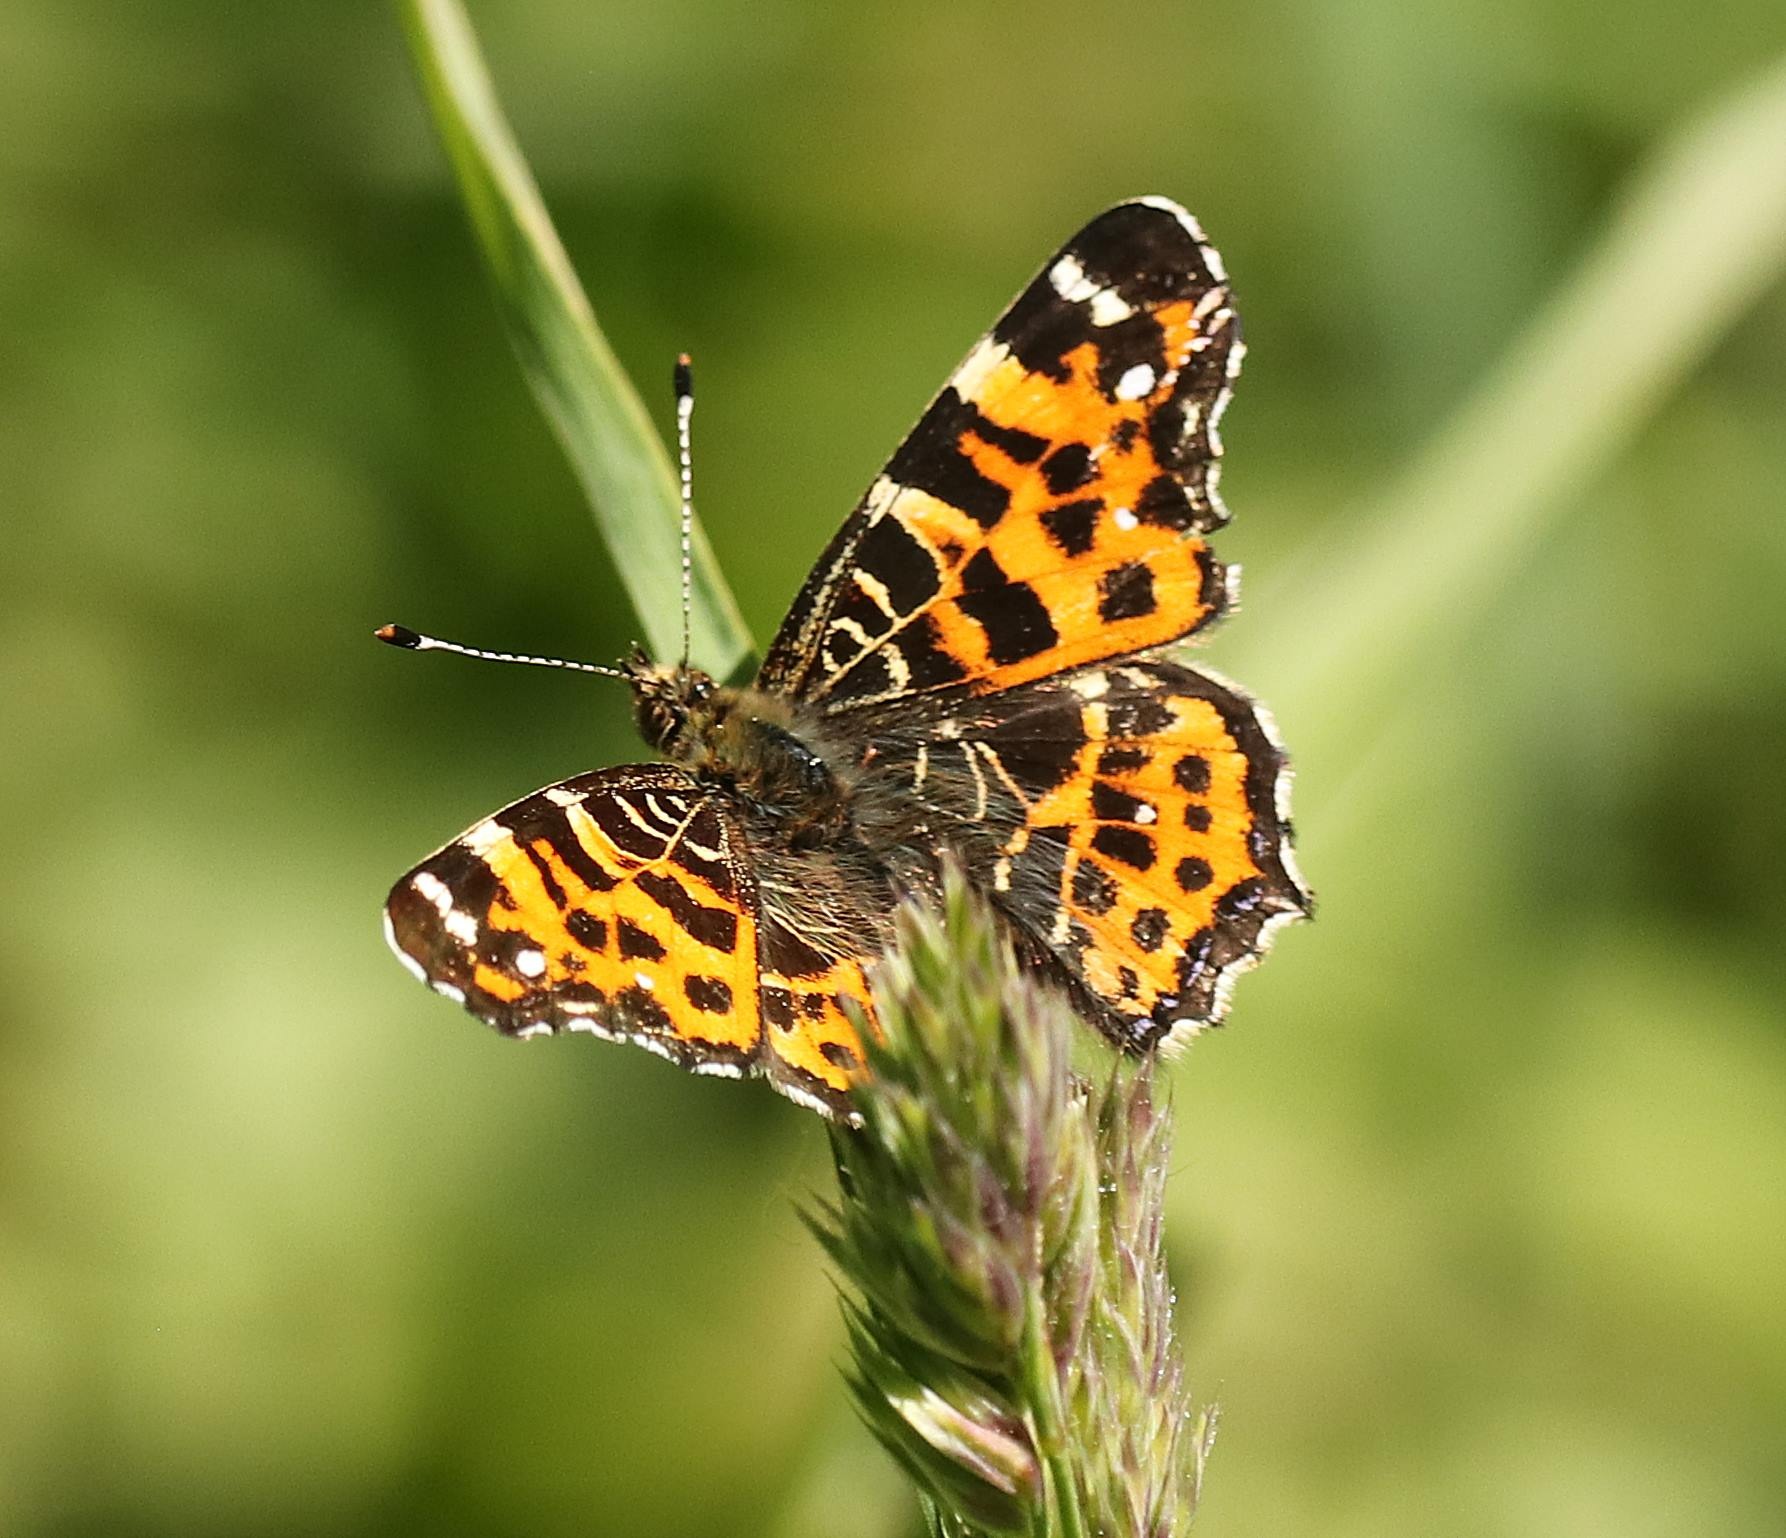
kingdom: Animalia
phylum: Arthropoda
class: Insecta
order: Lepidoptera
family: Nymphalidae
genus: Araschnia
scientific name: Araschnia levana
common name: Nældesommerfugl
